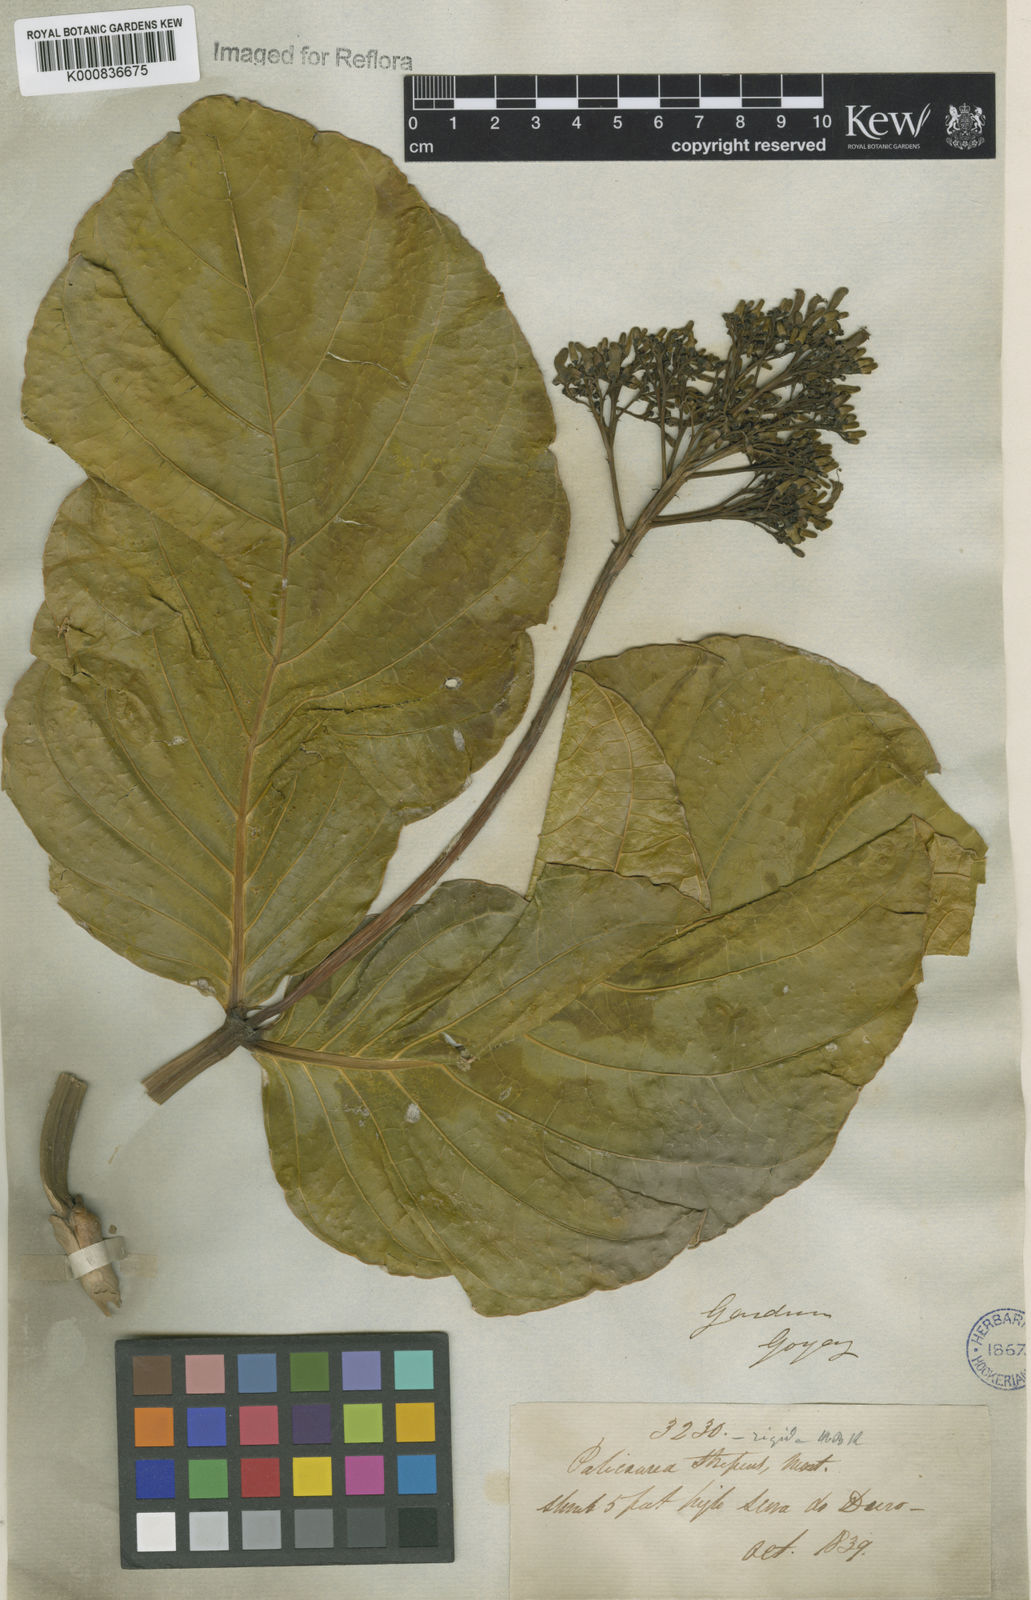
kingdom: Plantae
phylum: Tracheophyta
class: Magnoliopsida
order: Gentianales
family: Rubiaceae
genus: Palicourea
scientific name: Palicourea rigida
